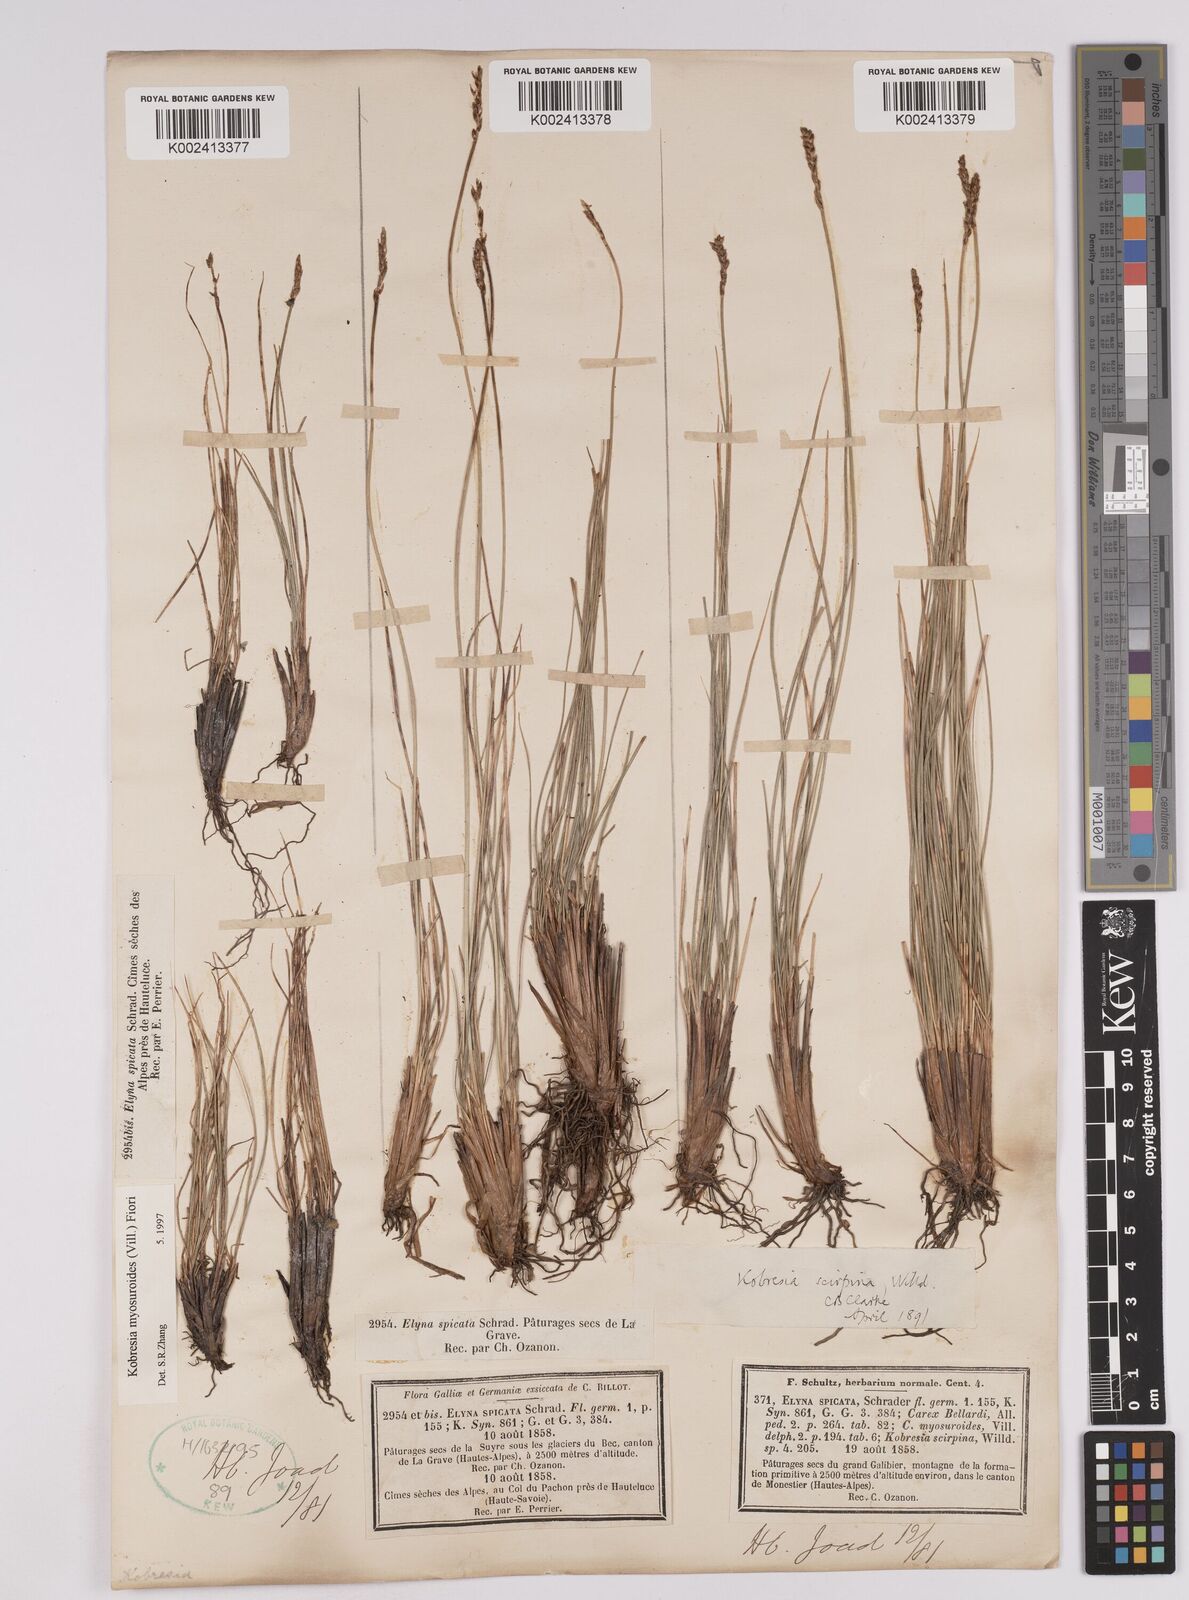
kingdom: Plantae
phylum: Tracheophyta
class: Liliopsida
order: Poales
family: Cyperaceae
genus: Carex
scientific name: Carex myosuroides
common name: Bellard's bog sedge
